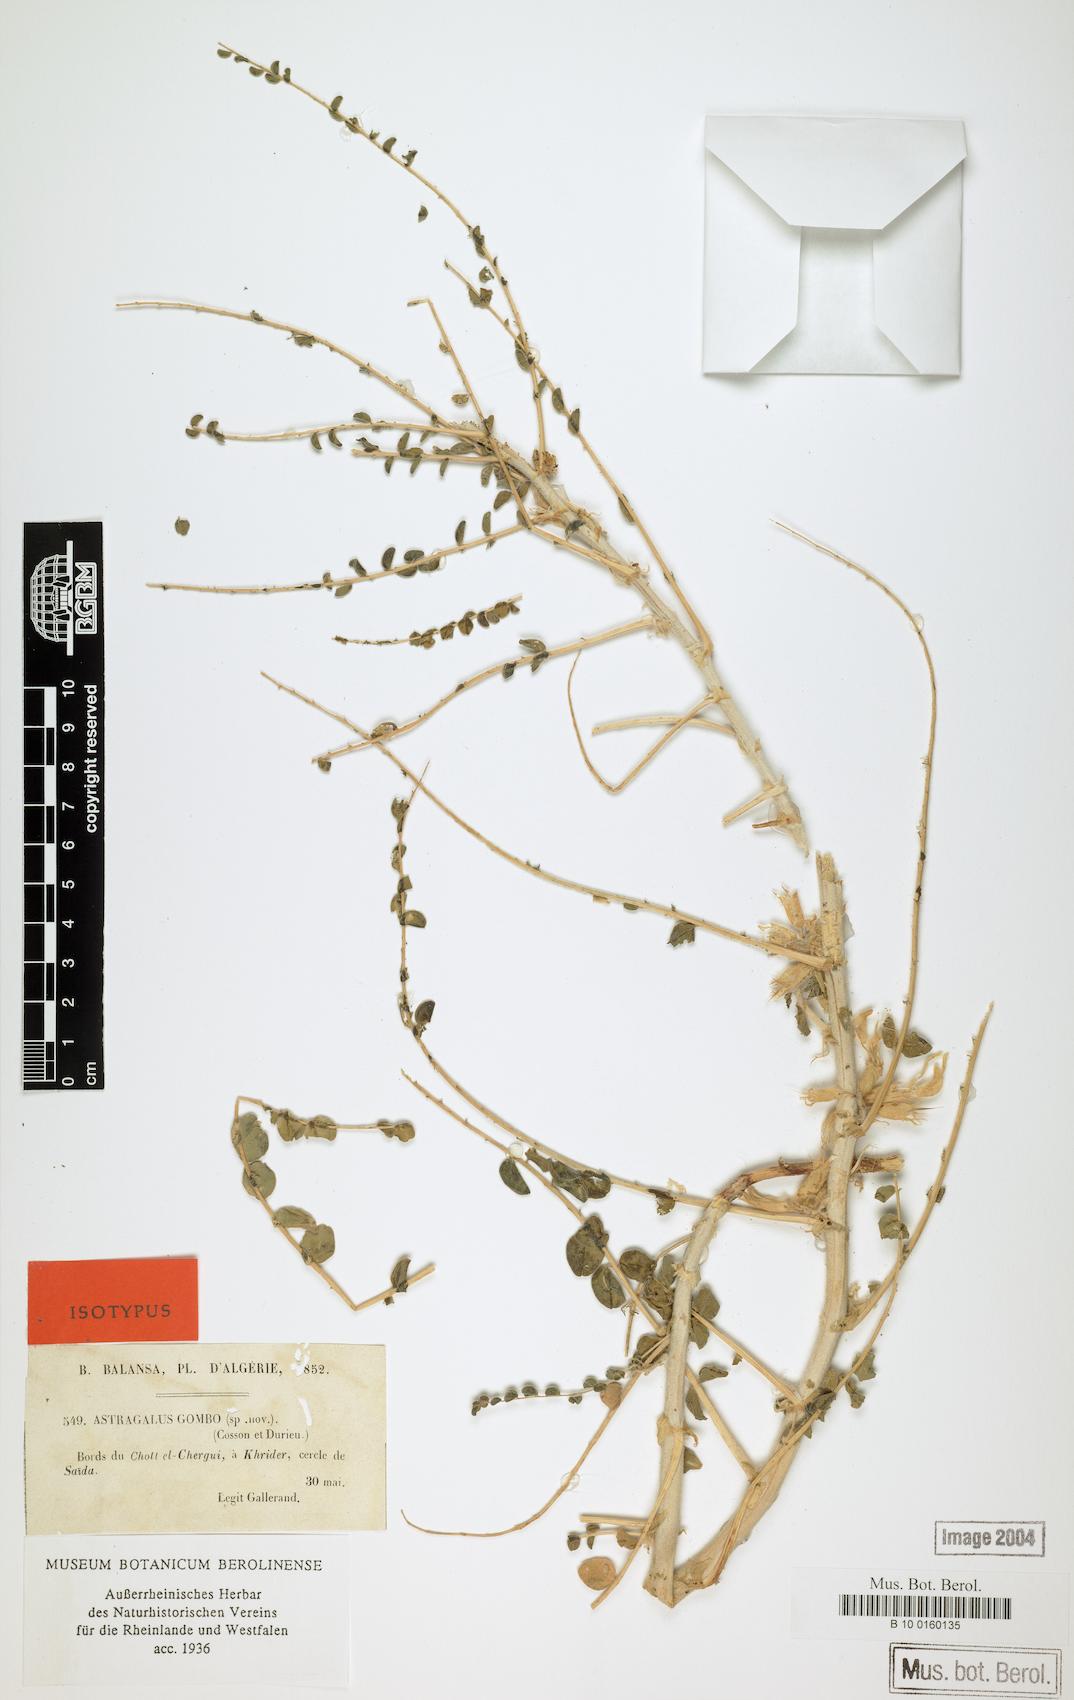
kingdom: Plantae
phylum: Tracheophyta
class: Magnoliopsida
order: Fabales
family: Fabaceae
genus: Astragalus
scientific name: Astragalus gombo
